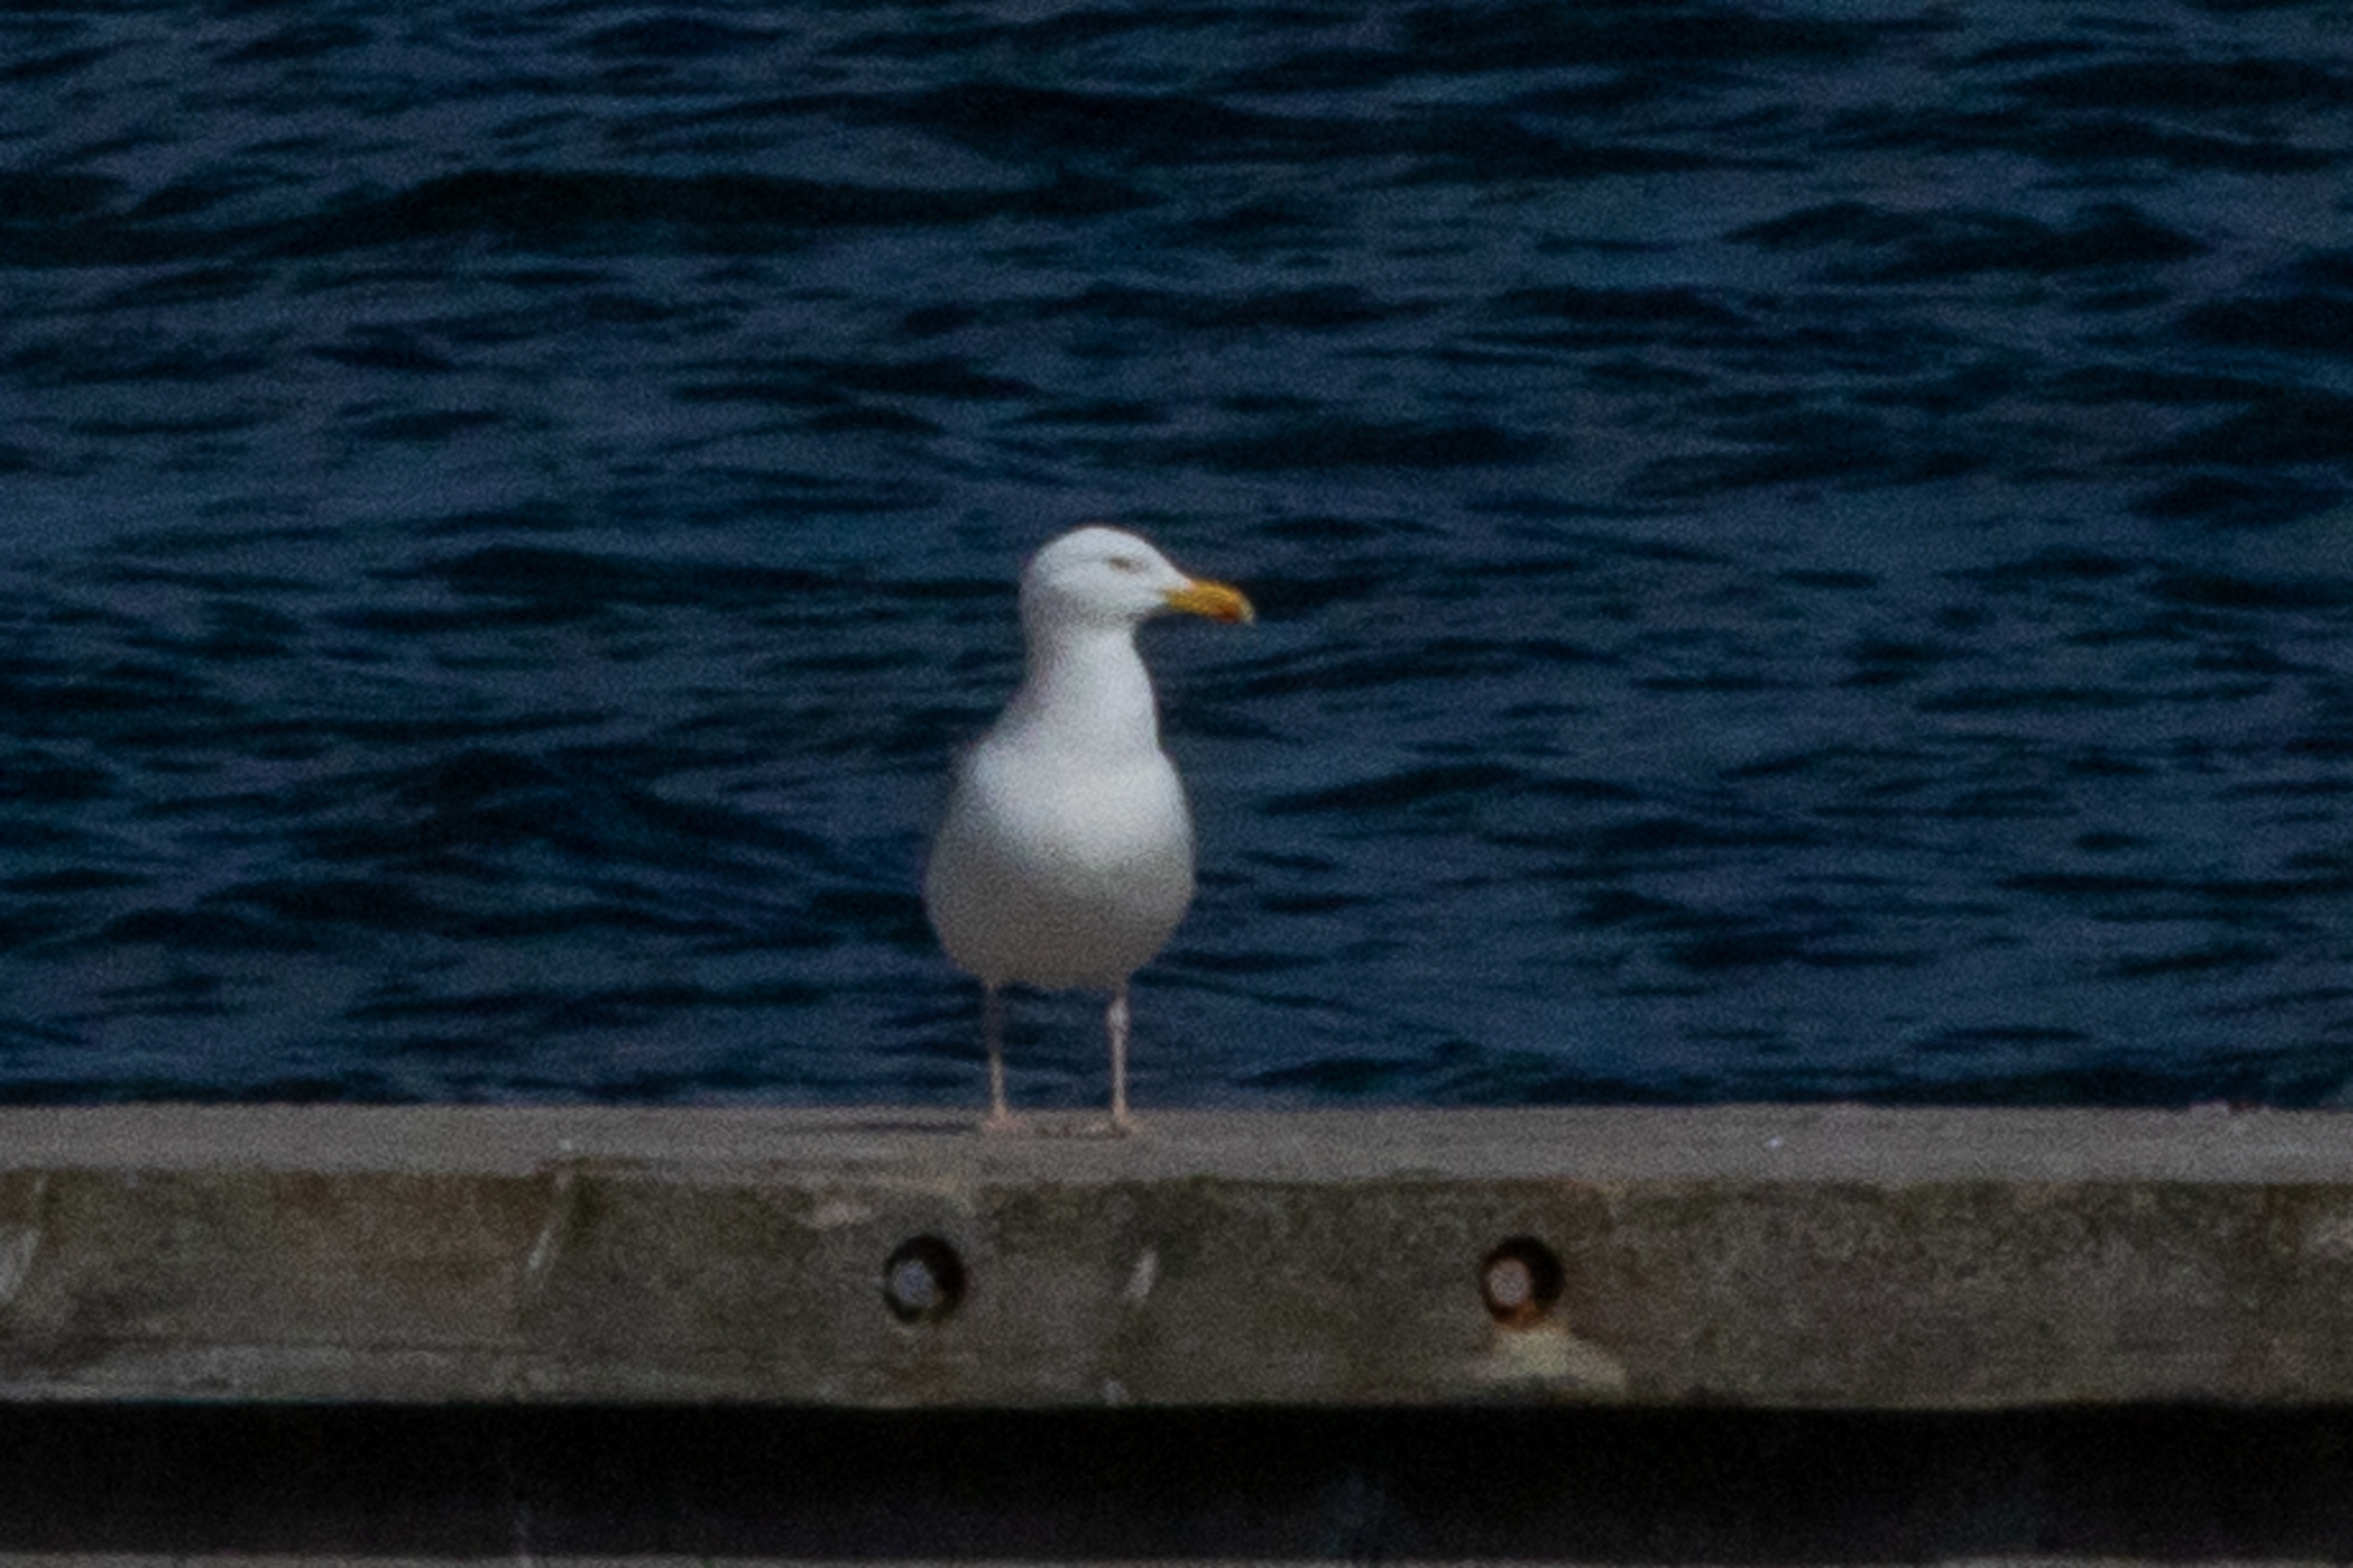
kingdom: Animalia
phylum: Chordata
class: Aves
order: Charadriiformes
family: Laridae
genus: Larus
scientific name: Larus argentatus
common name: Sølvmåge
